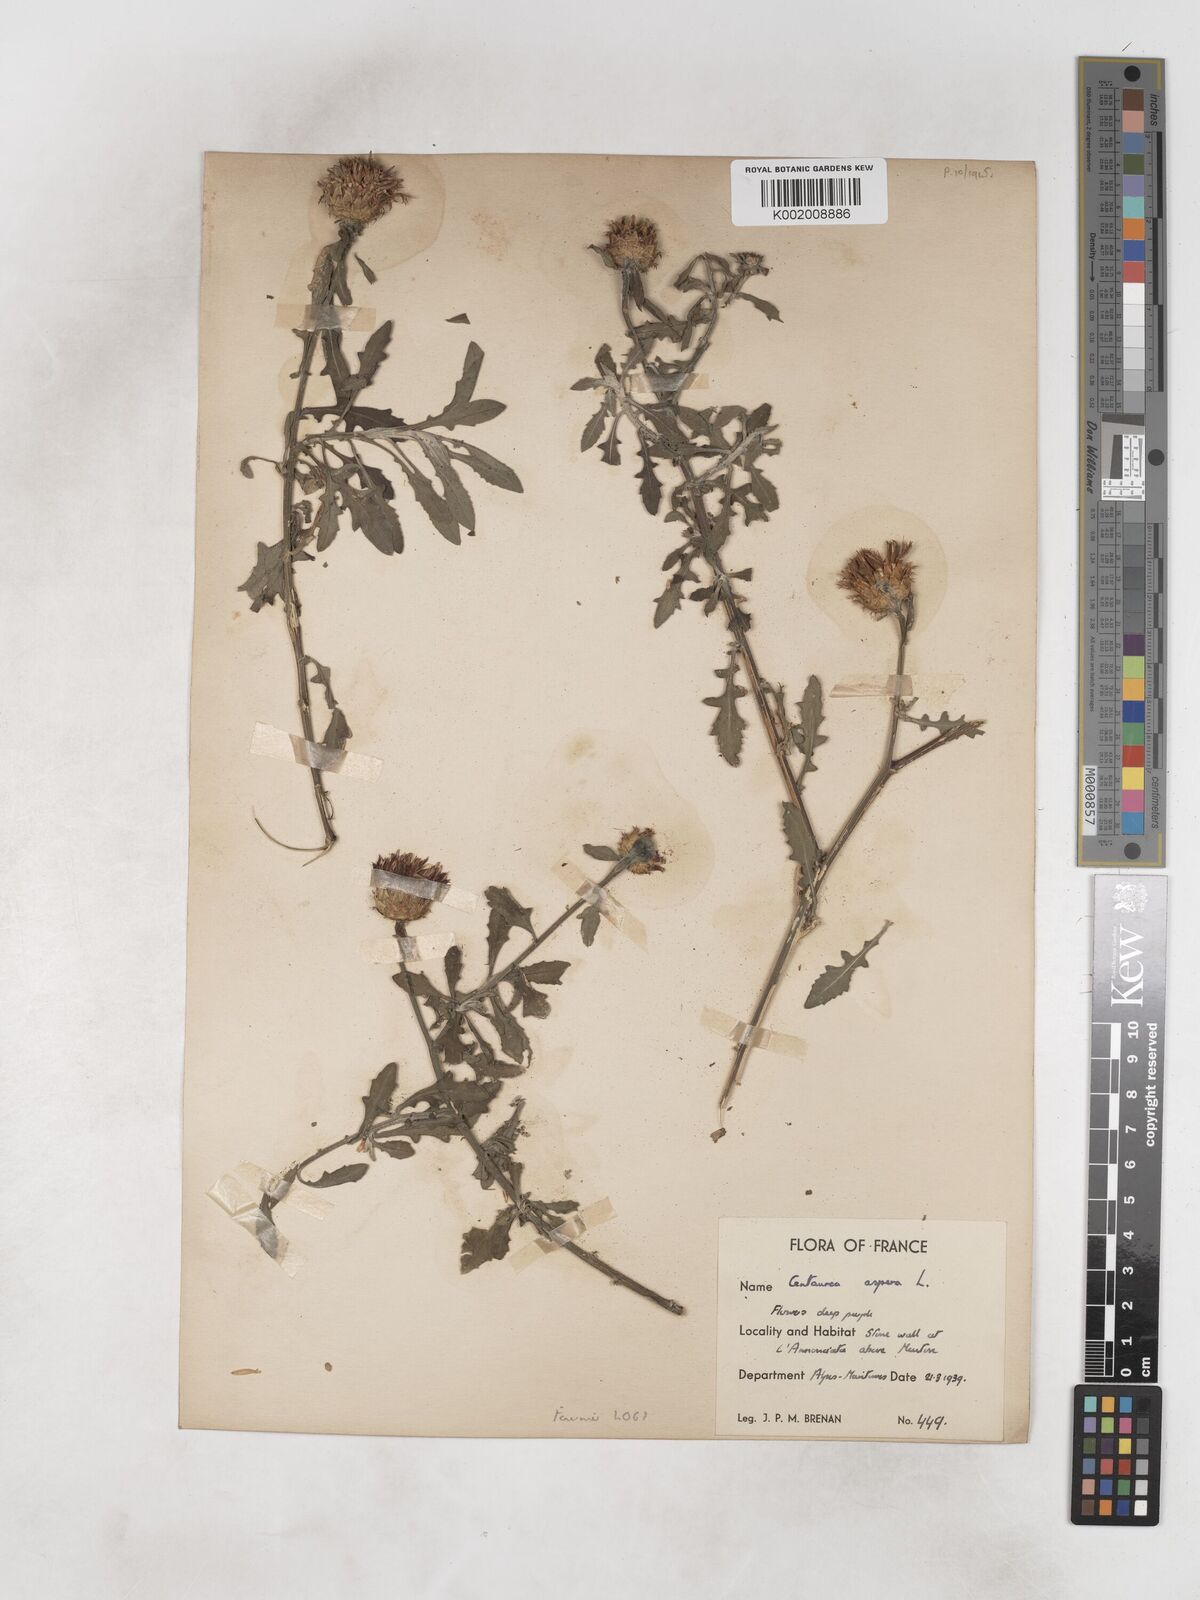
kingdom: Plantae
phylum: Tracheophyta
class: Magnoliopsida
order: Asterales
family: Asteraceae
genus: Centaurea
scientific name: Centaurea aspera
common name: Rough star-thistle
